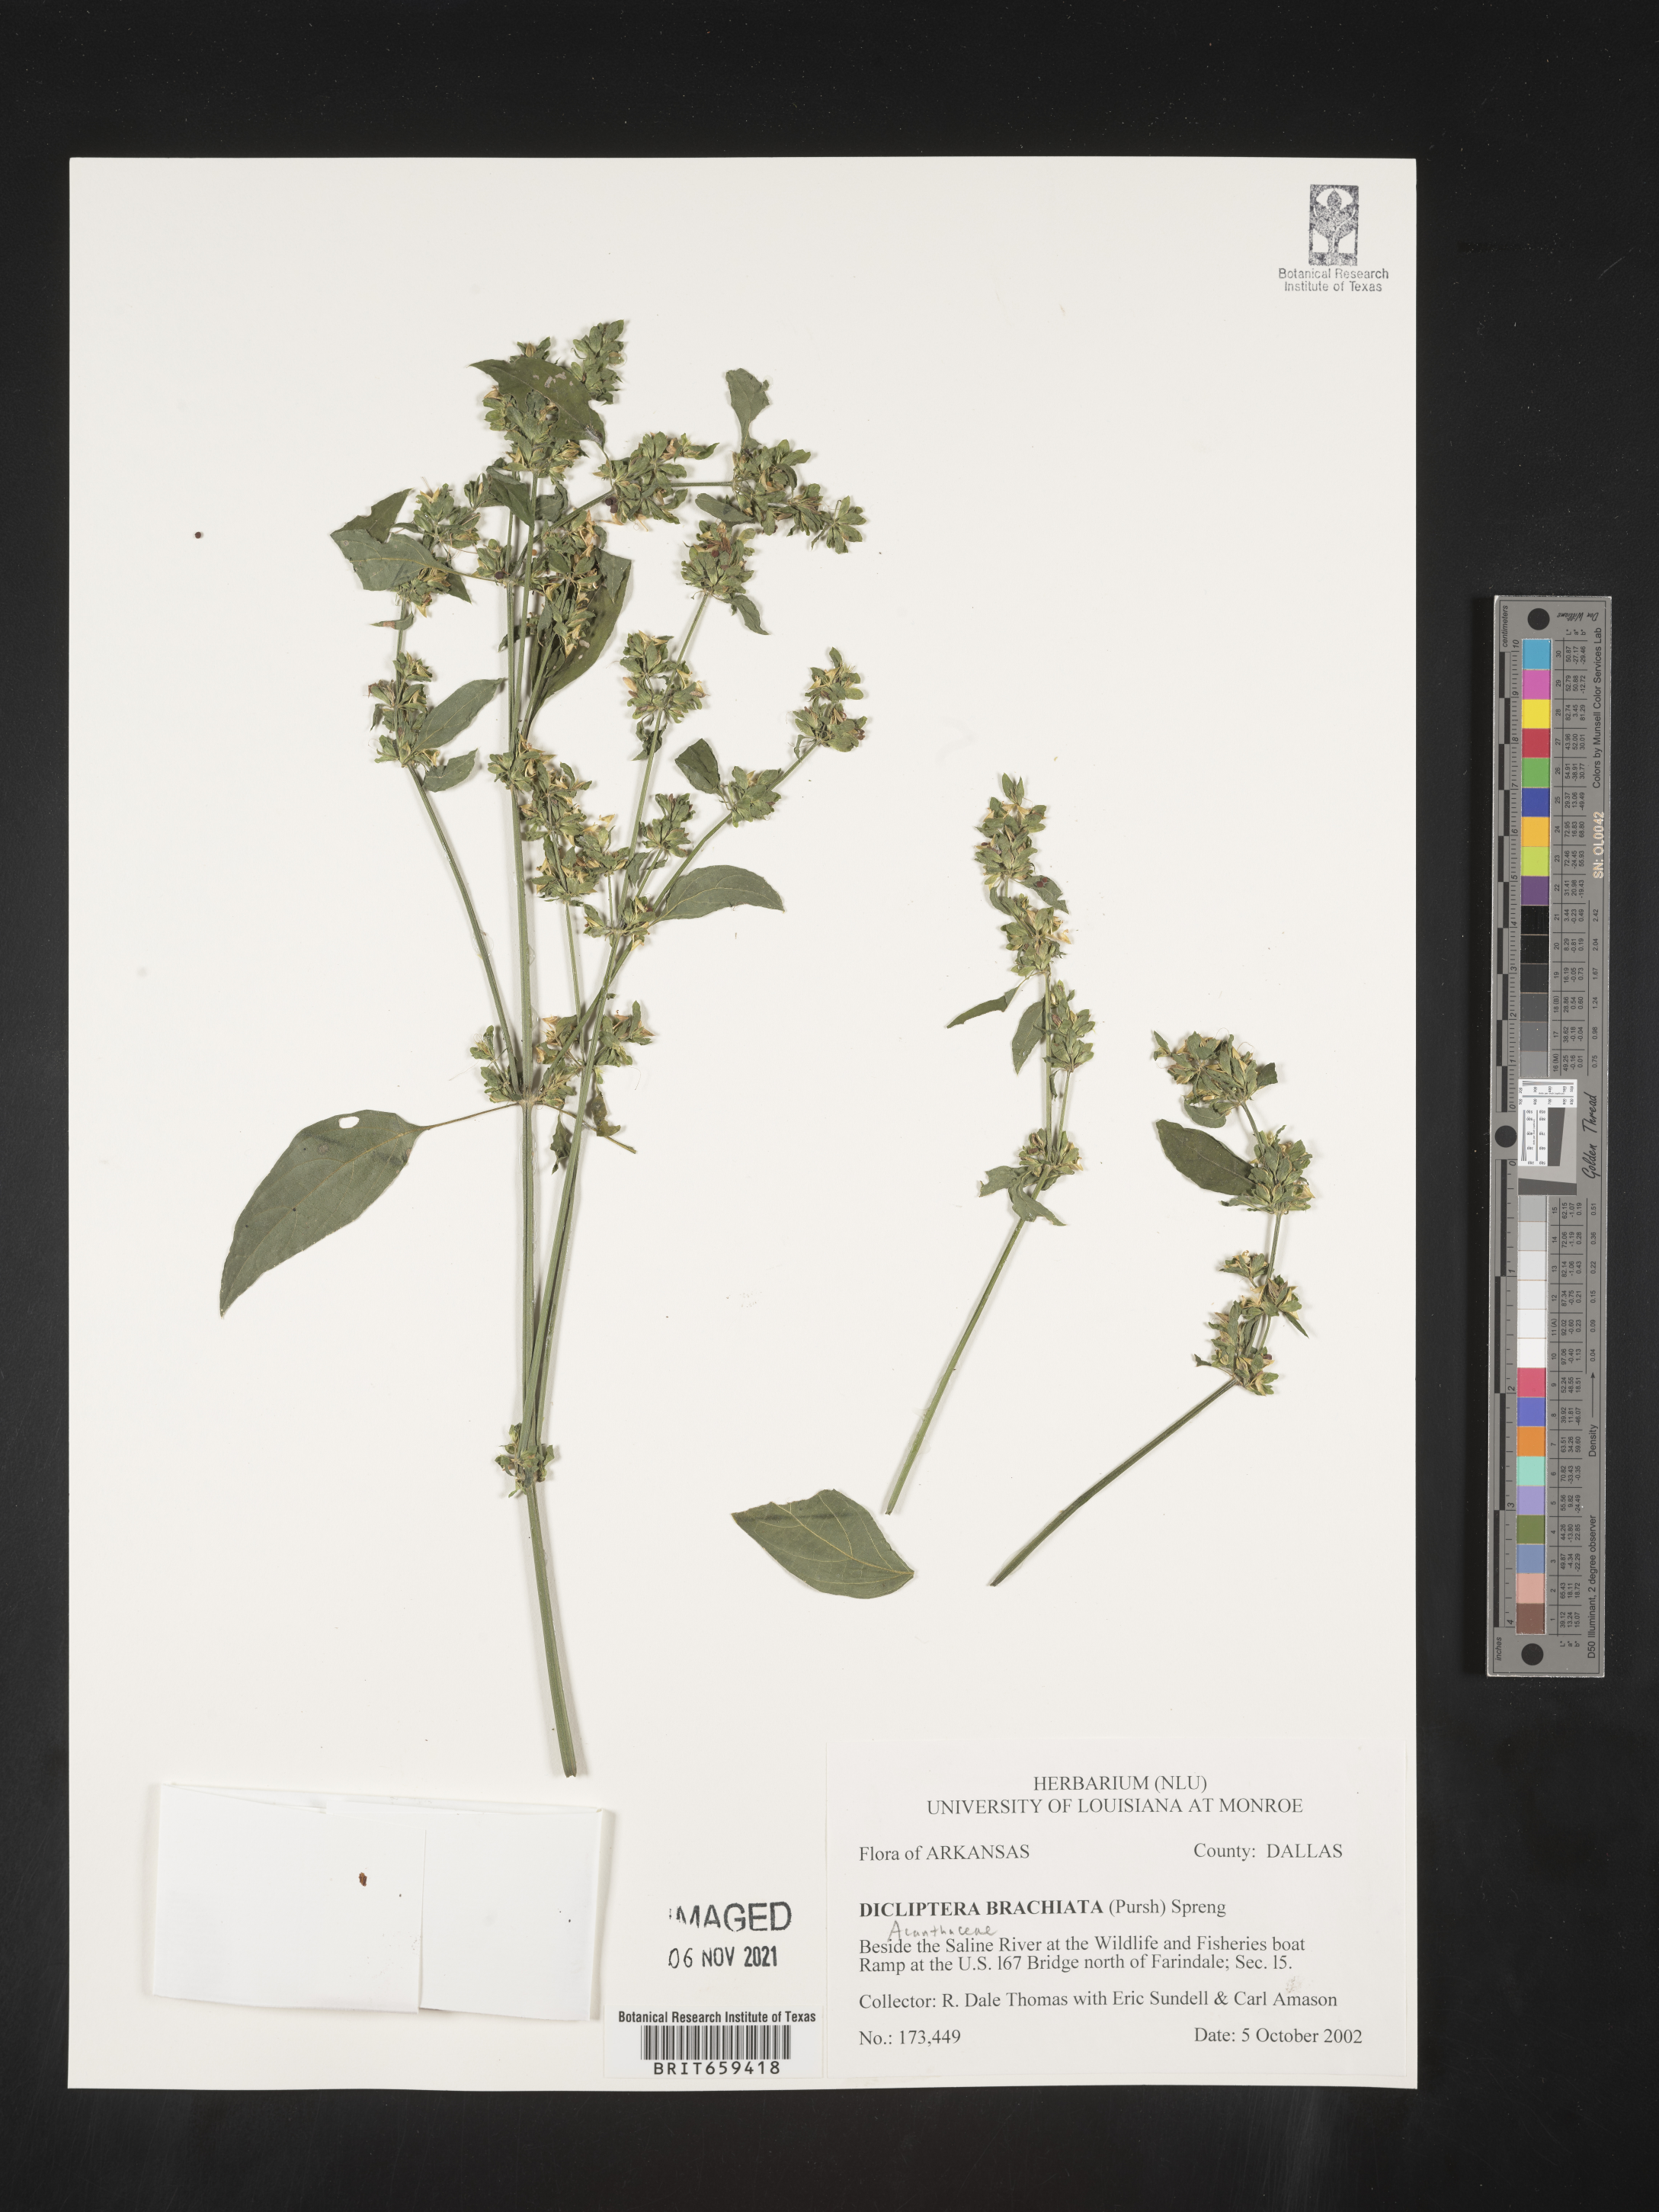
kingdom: Plantae
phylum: Tracheophyta
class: Magnoliopsida
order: Lamiales
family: Acanthaceae
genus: Dicliptera
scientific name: Dicliptera brachiata
